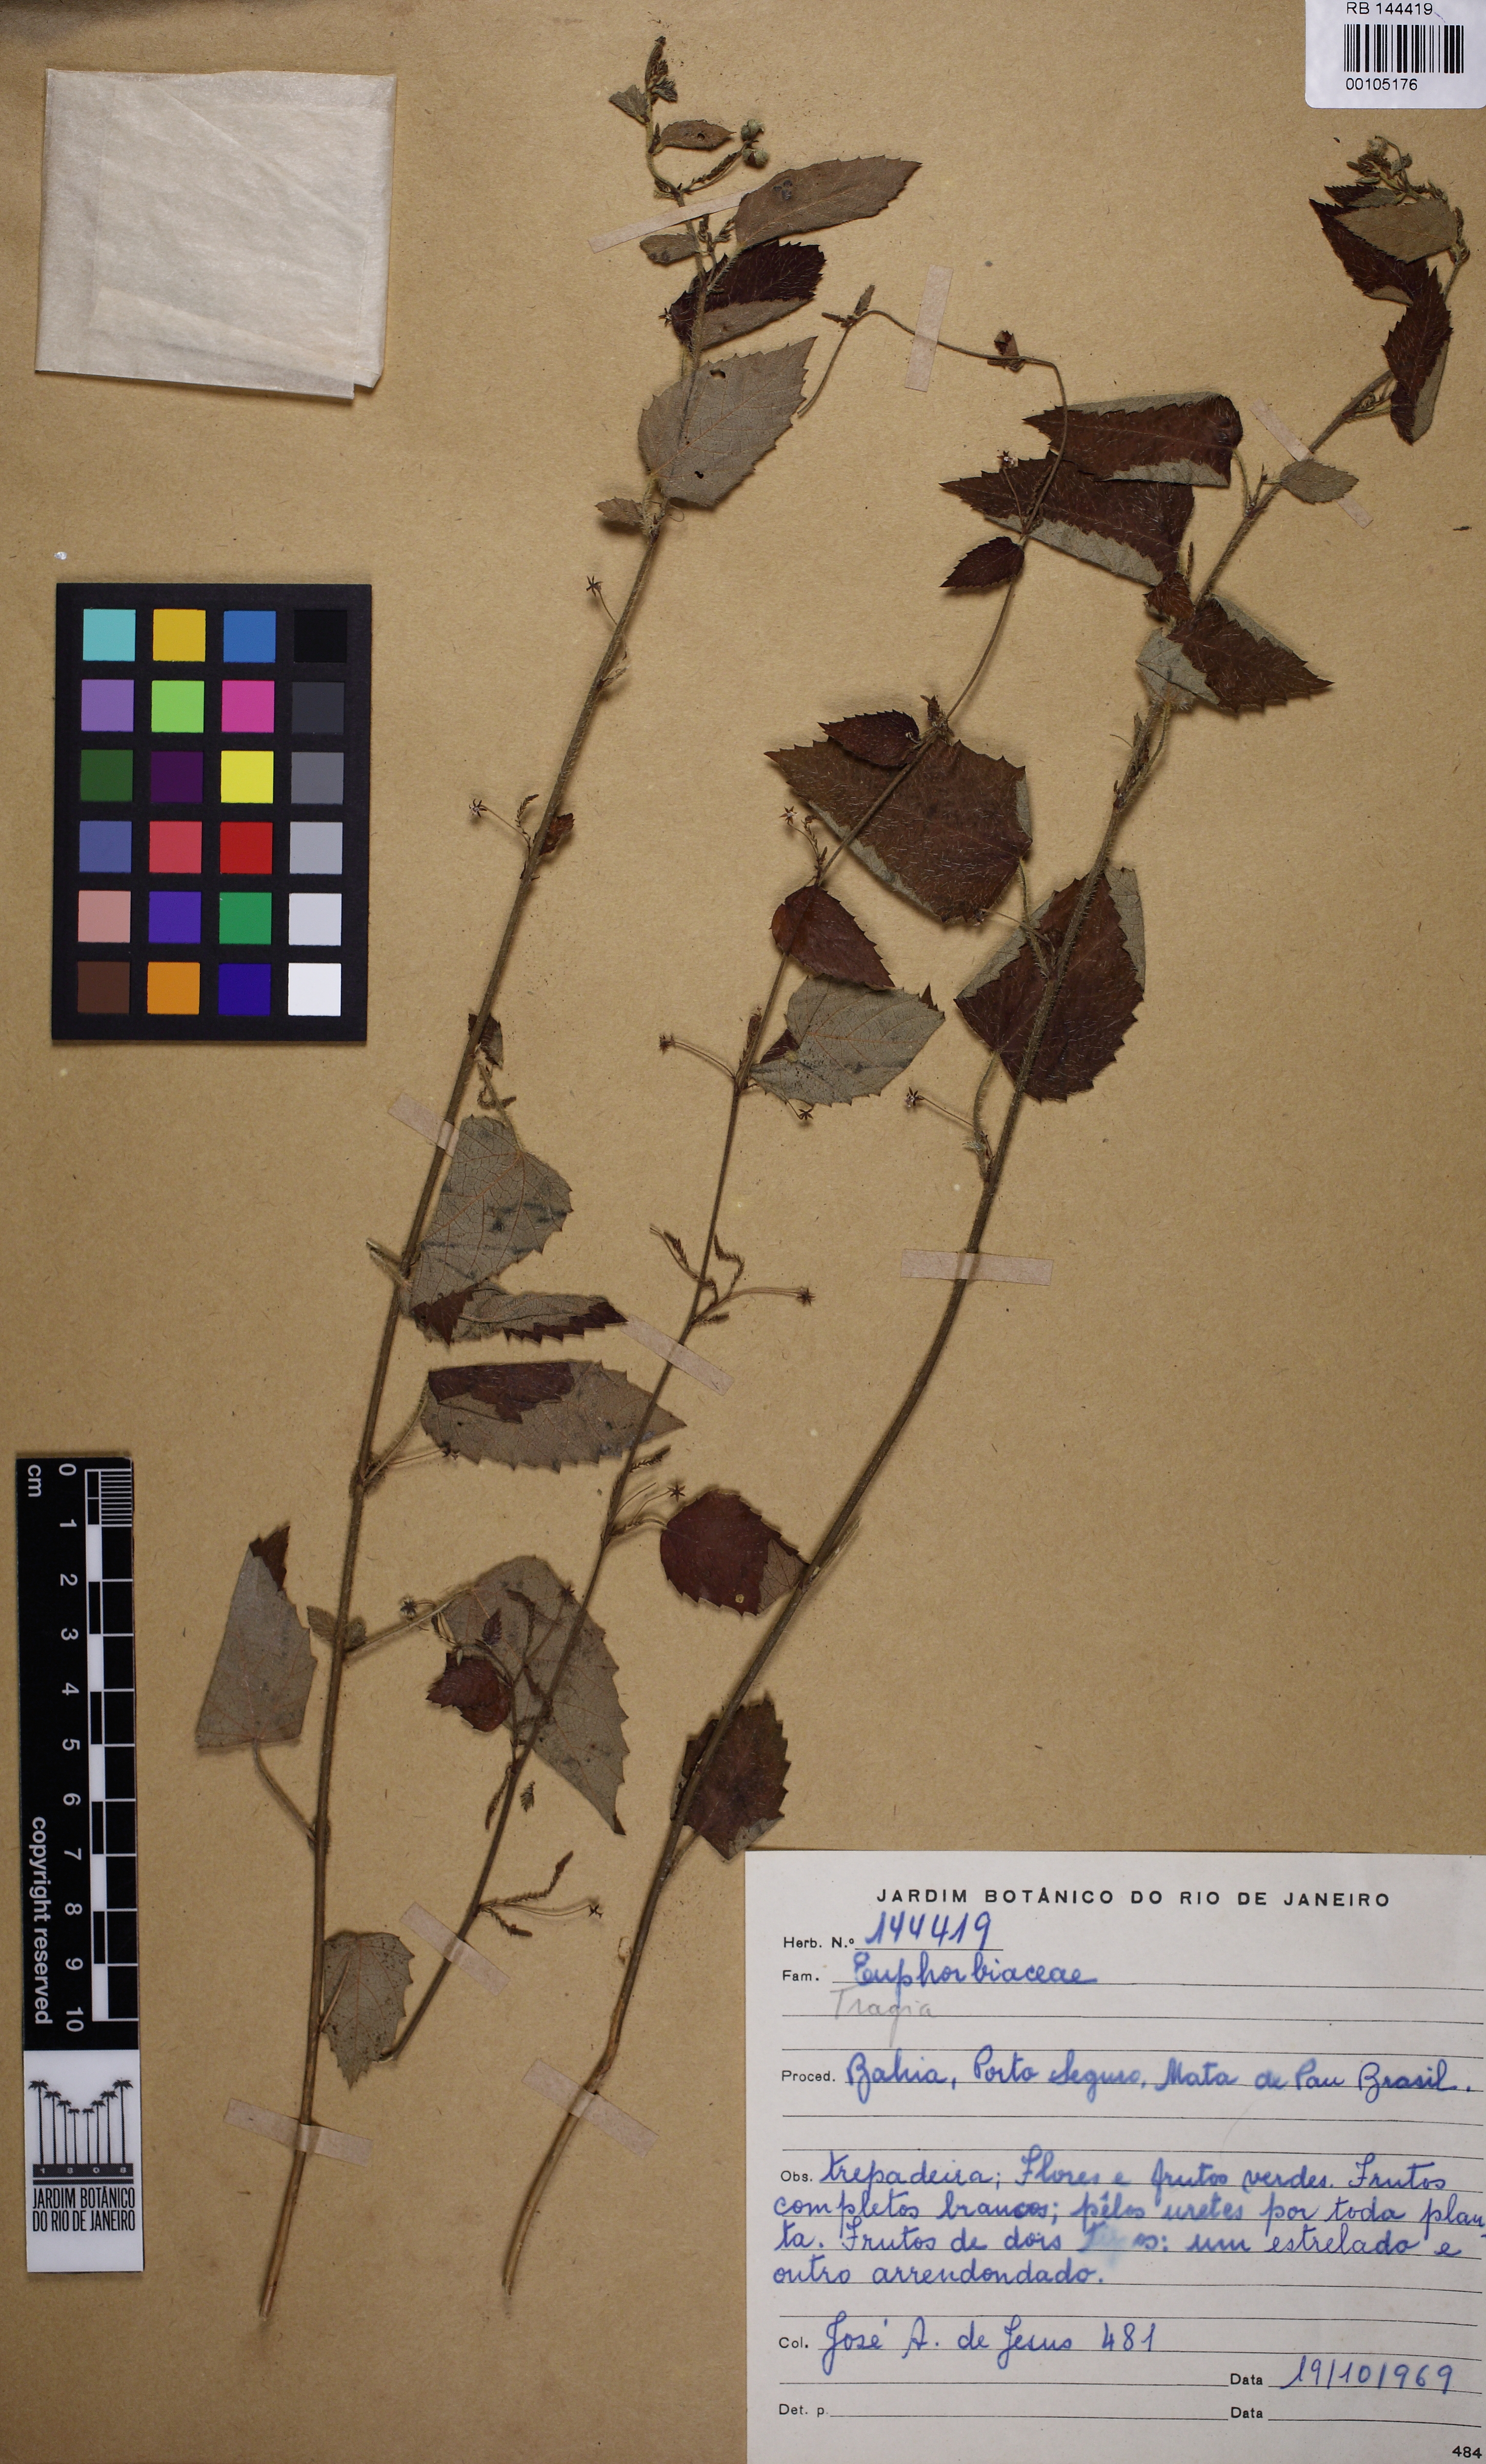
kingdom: Plantae
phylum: Tracheophyta
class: Magnoliopsida
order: Malpighiales
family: Euphorbiaceae
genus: Tragia
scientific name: Tragia volubilis
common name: Twining cow-itch
